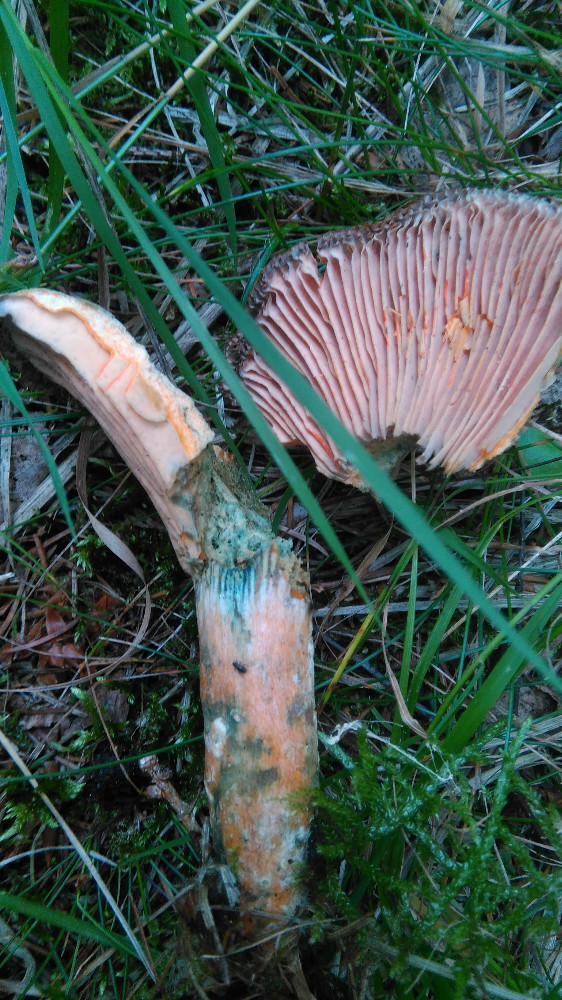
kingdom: Fungi
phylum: Basidiomycota
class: Agaricomycetes
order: Russulales
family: Russulaceae
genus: Lactarius
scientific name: Lactarius deterrimus
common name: gran-mælkehat
